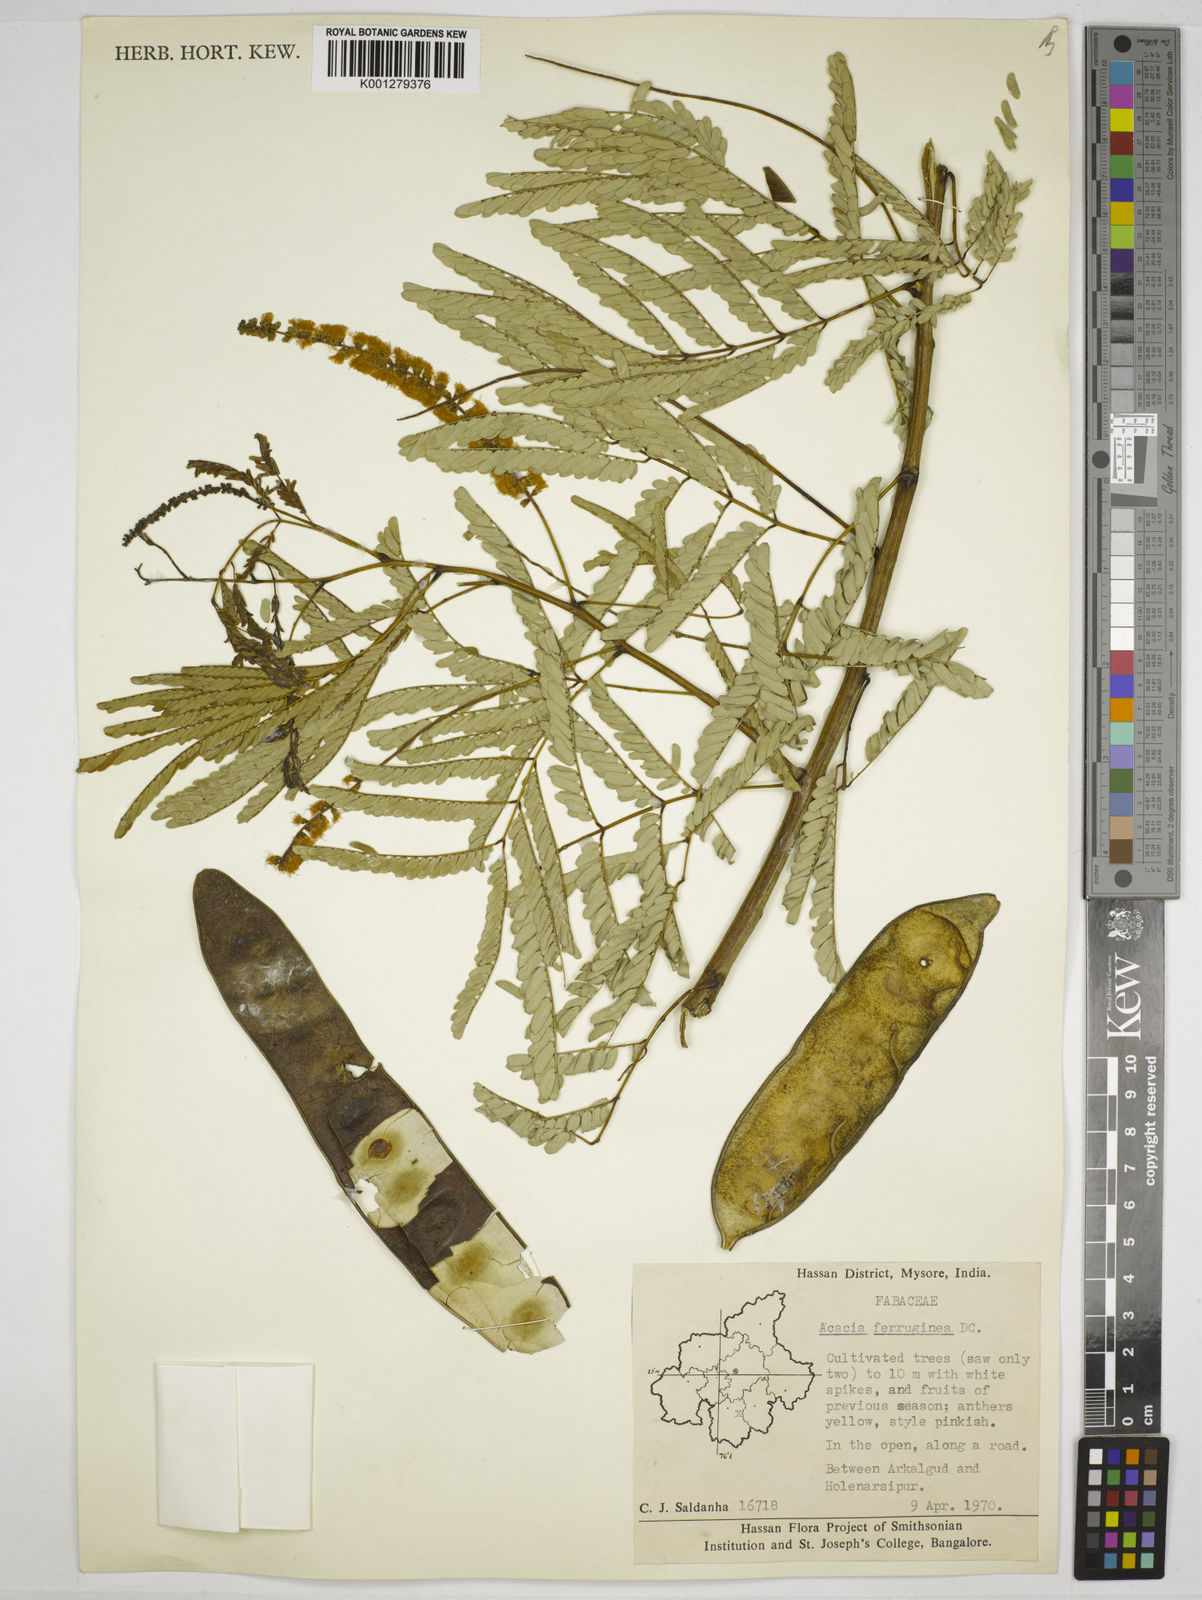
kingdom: Plantae
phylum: Tracheophyta
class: Magnoliopsida
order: Fabales
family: Fabaceae
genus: Senegalia
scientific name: Senegalia ferruginea
